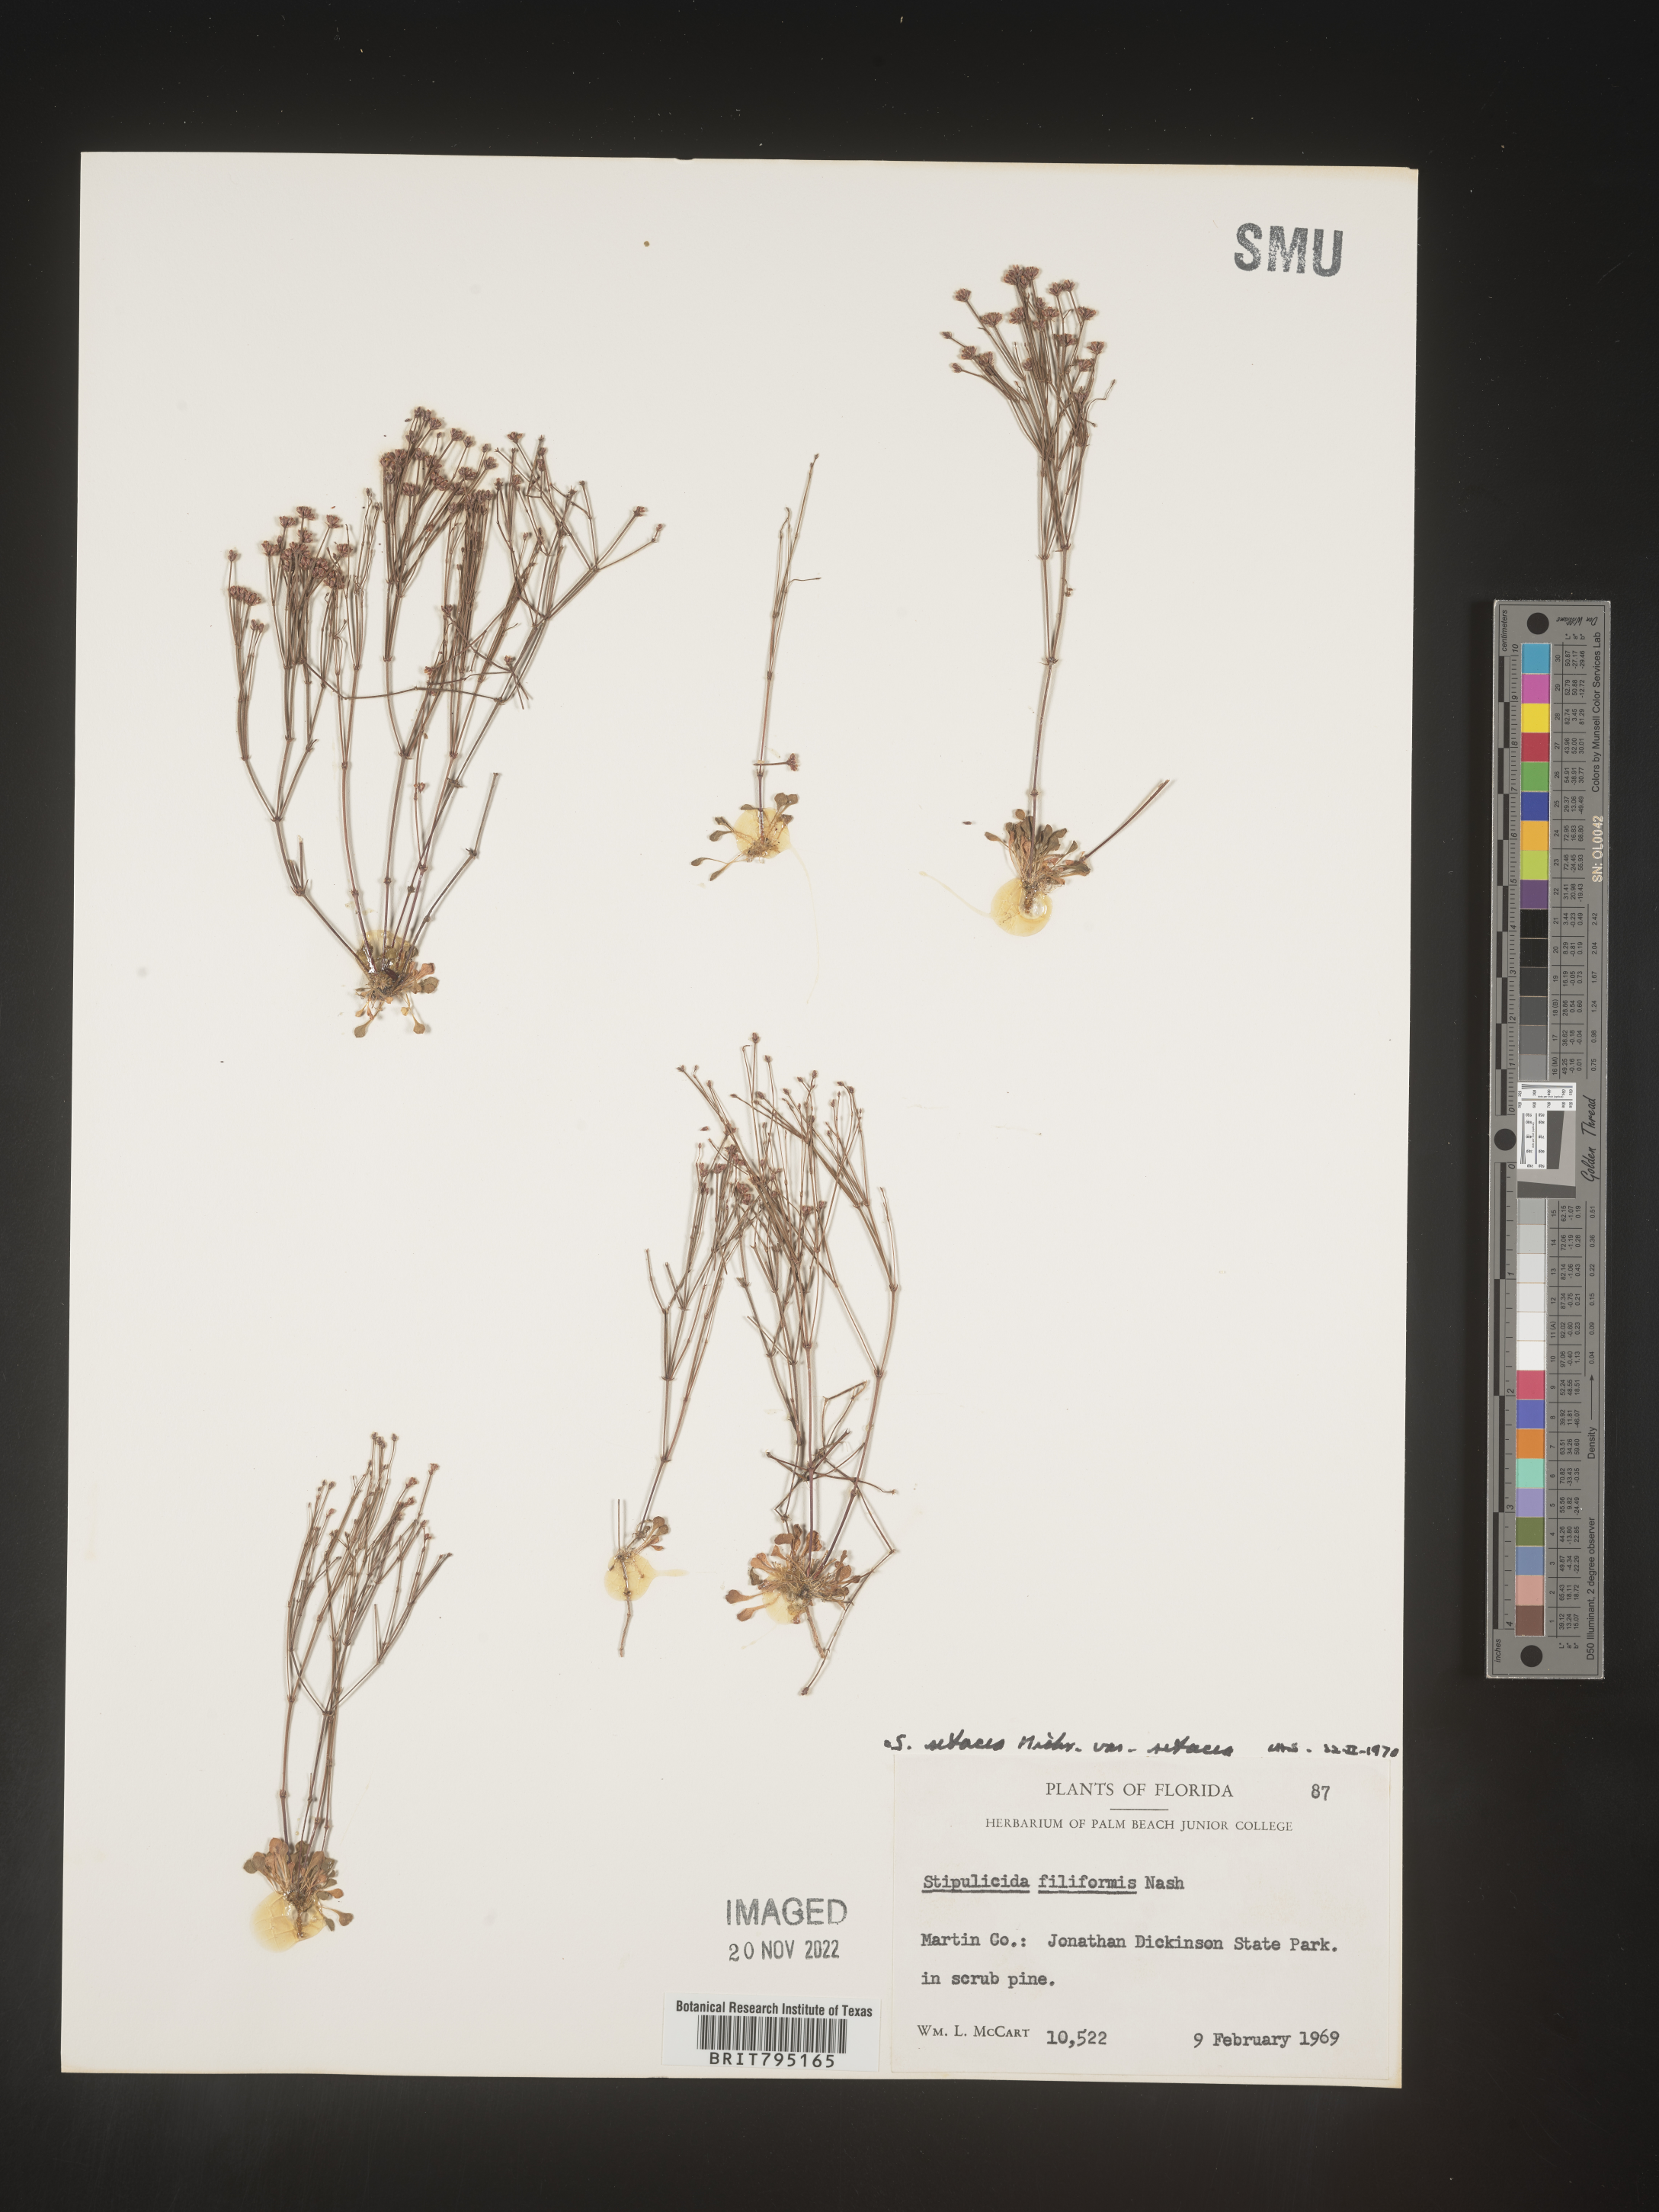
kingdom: Plantae
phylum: Tracheophyta
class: Magnoliopsida
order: Caryophyllales
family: Caryophyllaceae
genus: Stipulicida
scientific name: Stipulicida
